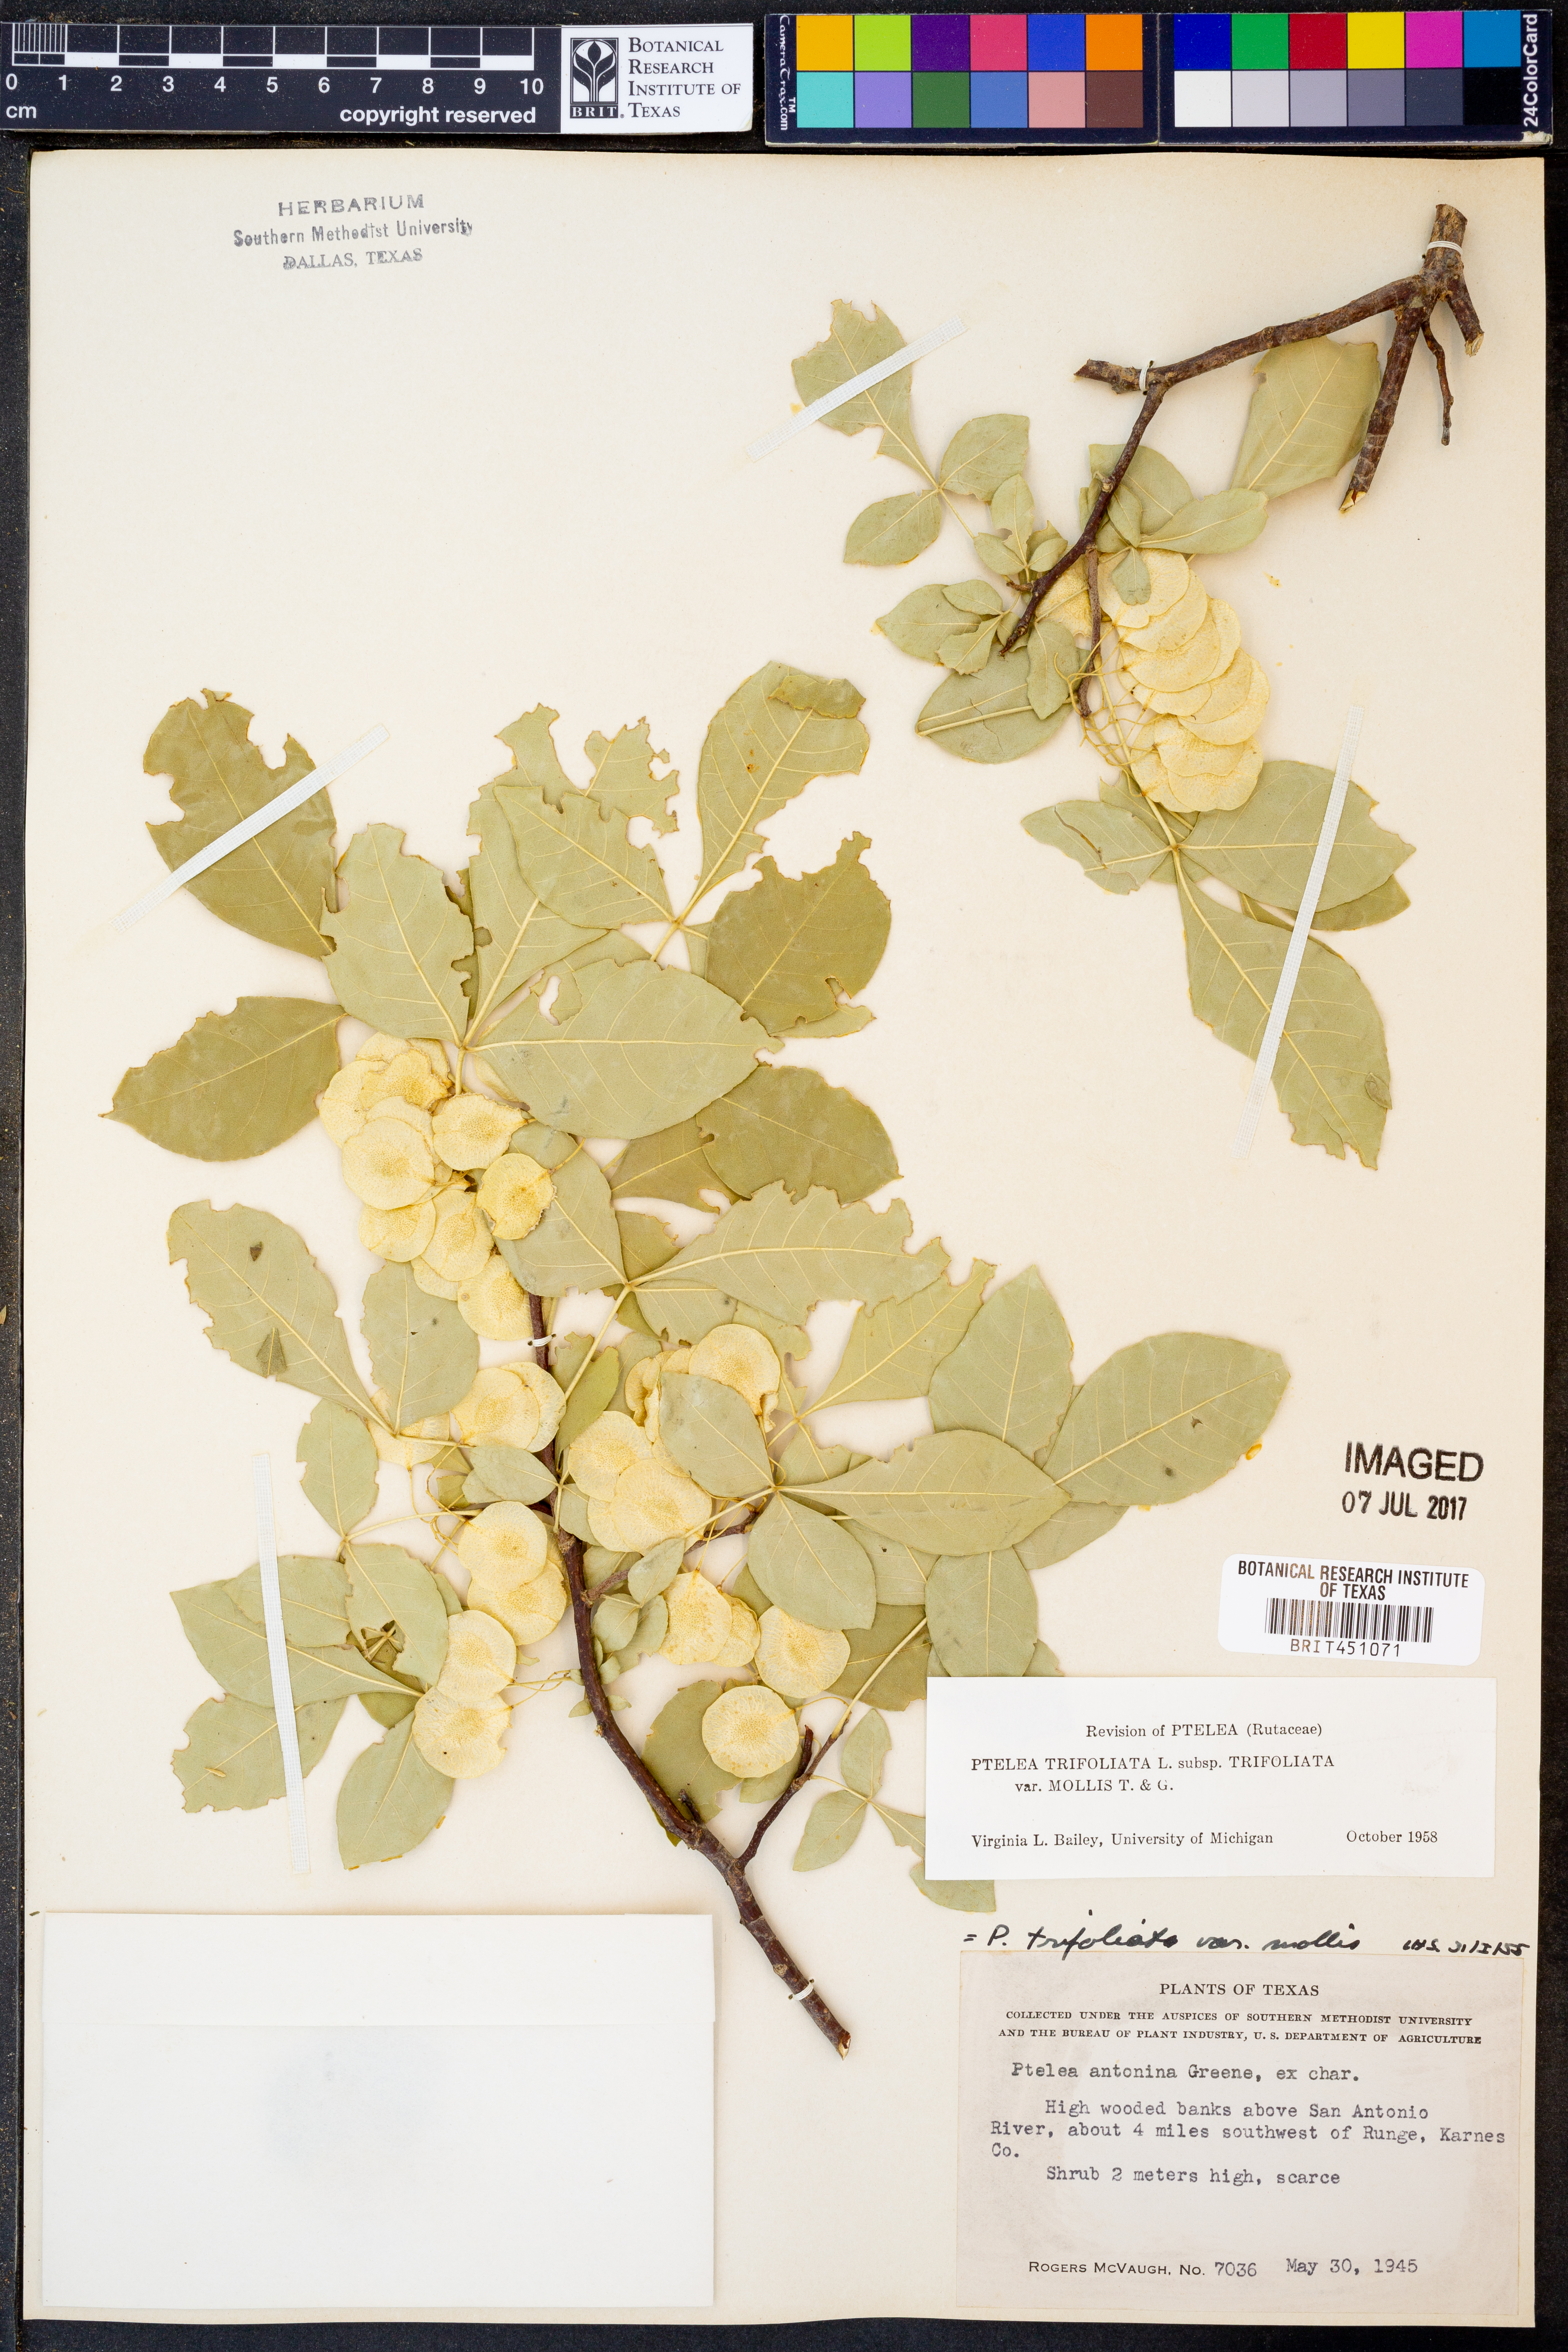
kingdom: Plantae
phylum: Tracheophyta
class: Magnoliopsida
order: Sapindales
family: Rutaceae
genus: Ptelea
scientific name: Ptelea trifoliata
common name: Common hop-tree
